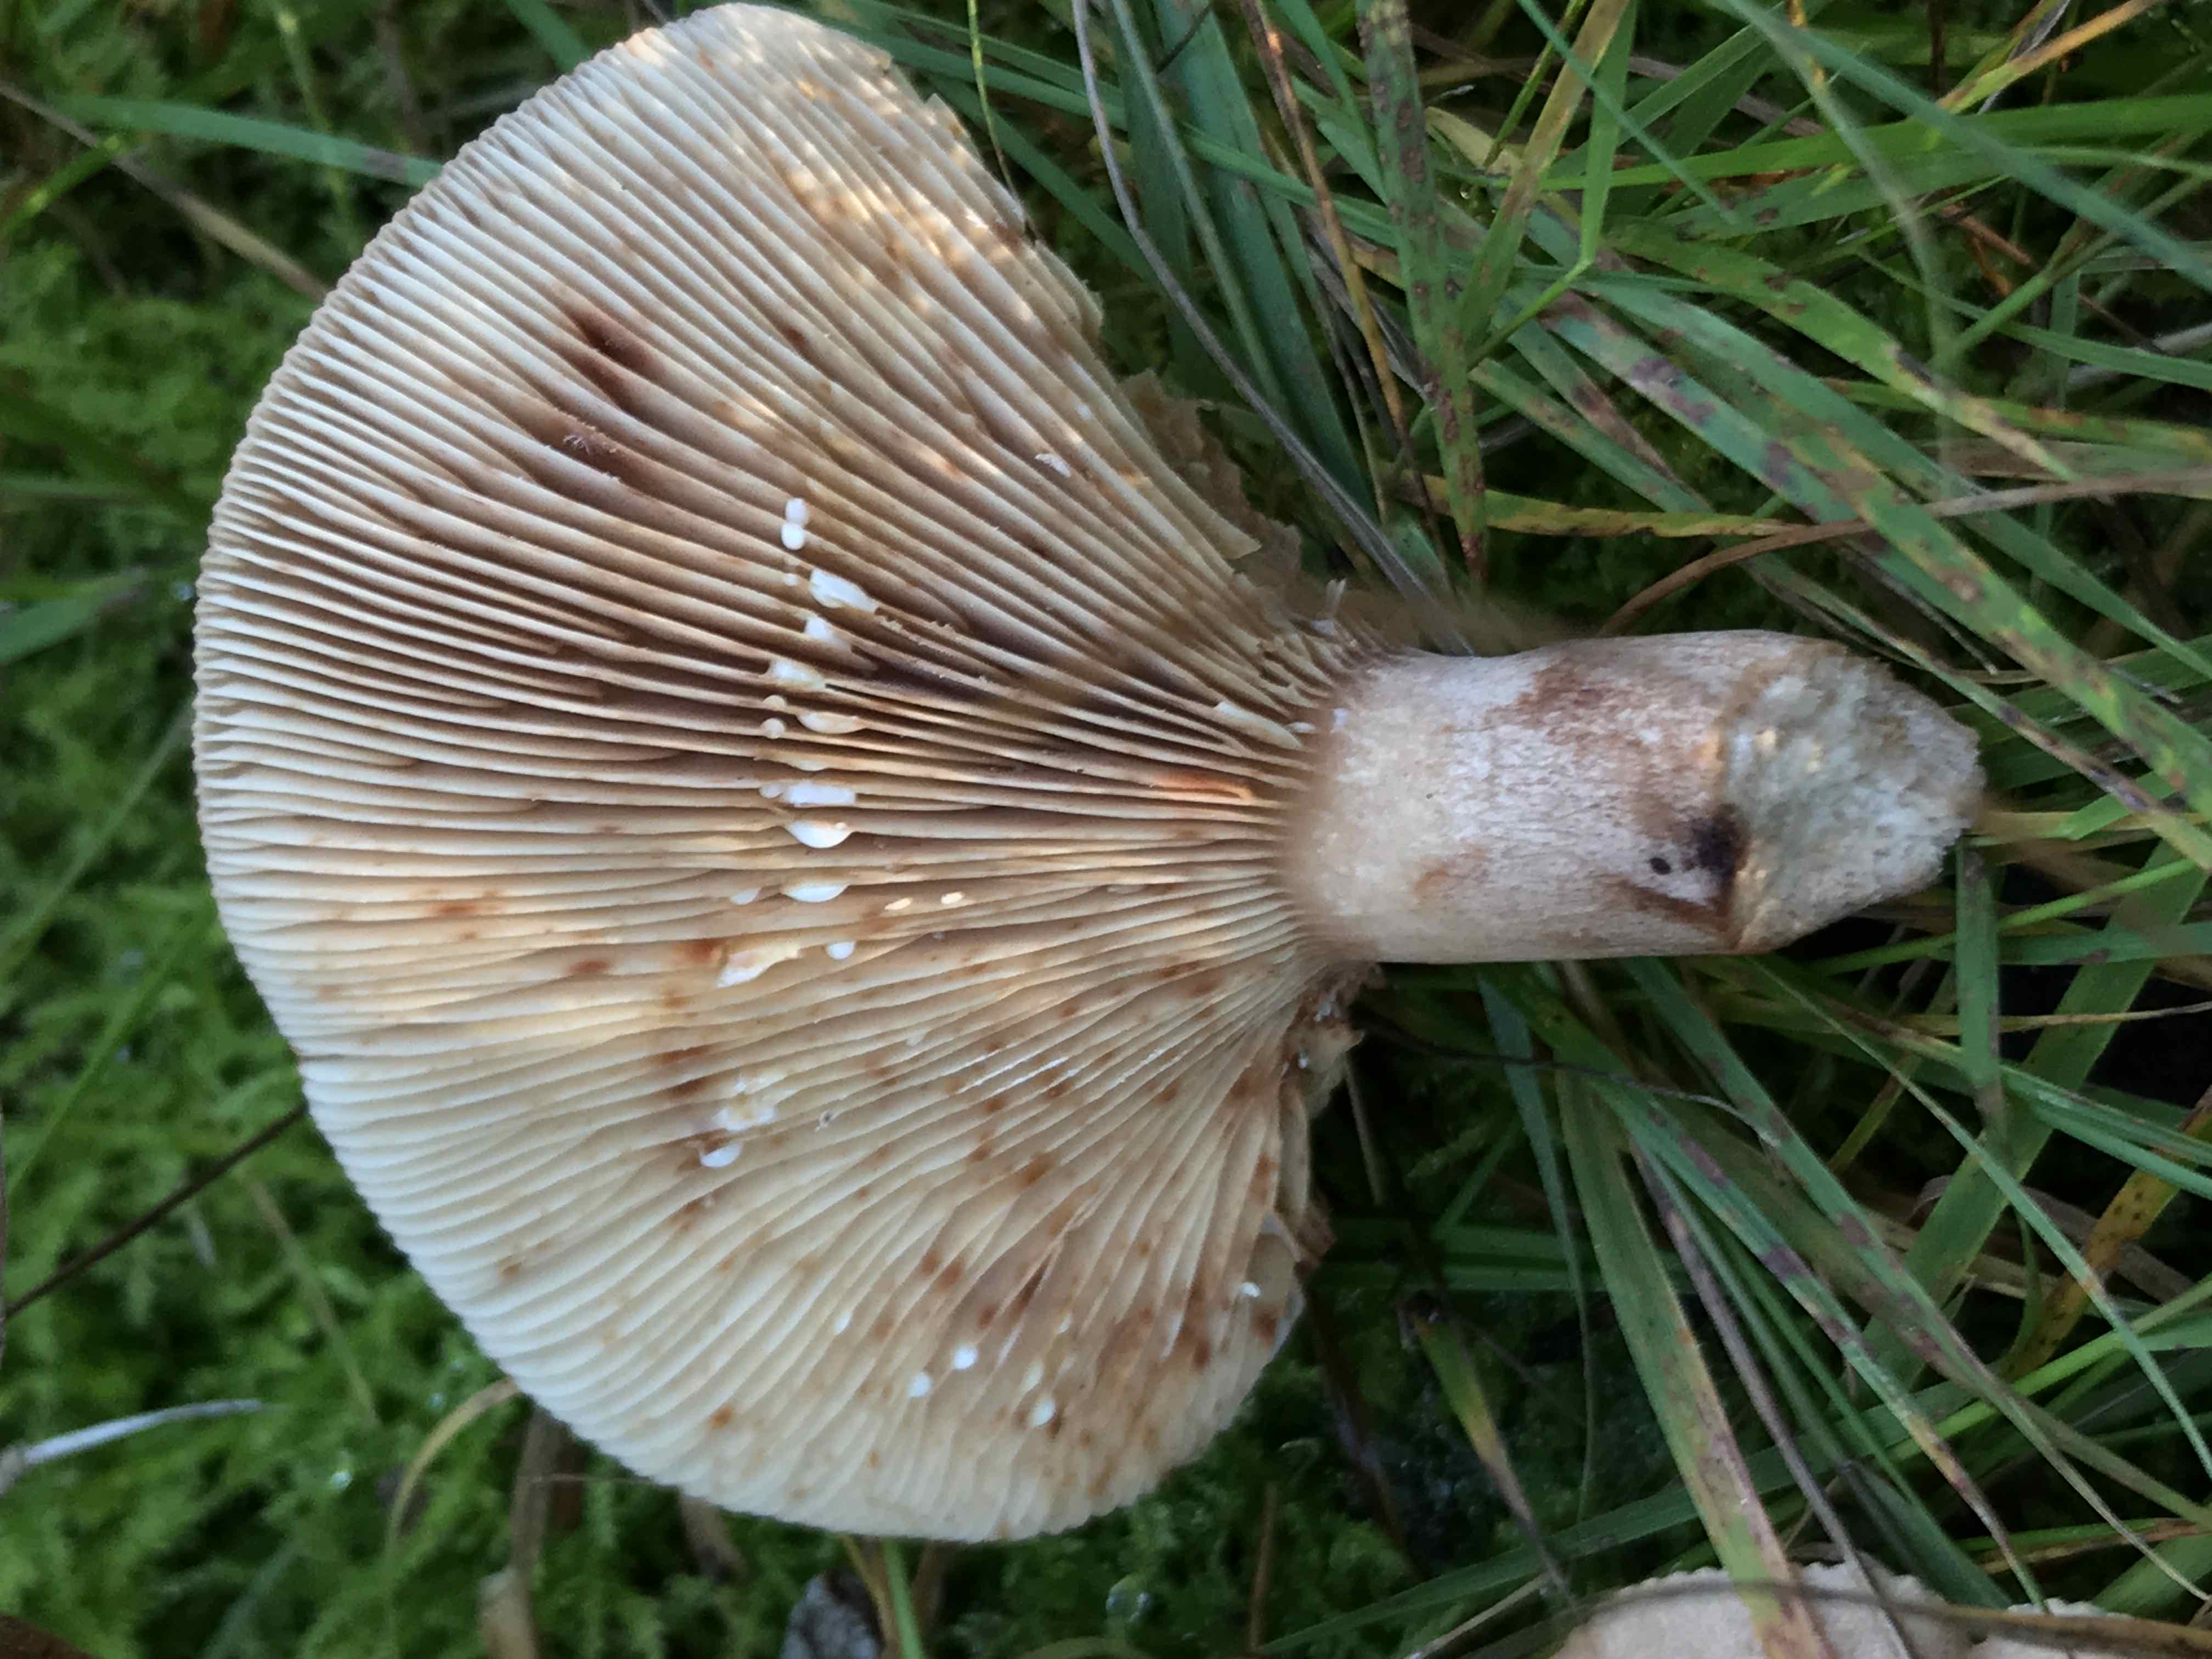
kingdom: Fungi
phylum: Basidiomycota
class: Agaricomycetes
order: Russulales
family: Russulaceae
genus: Lactarius
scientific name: Lactarius quietus
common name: ege-mælkehat
